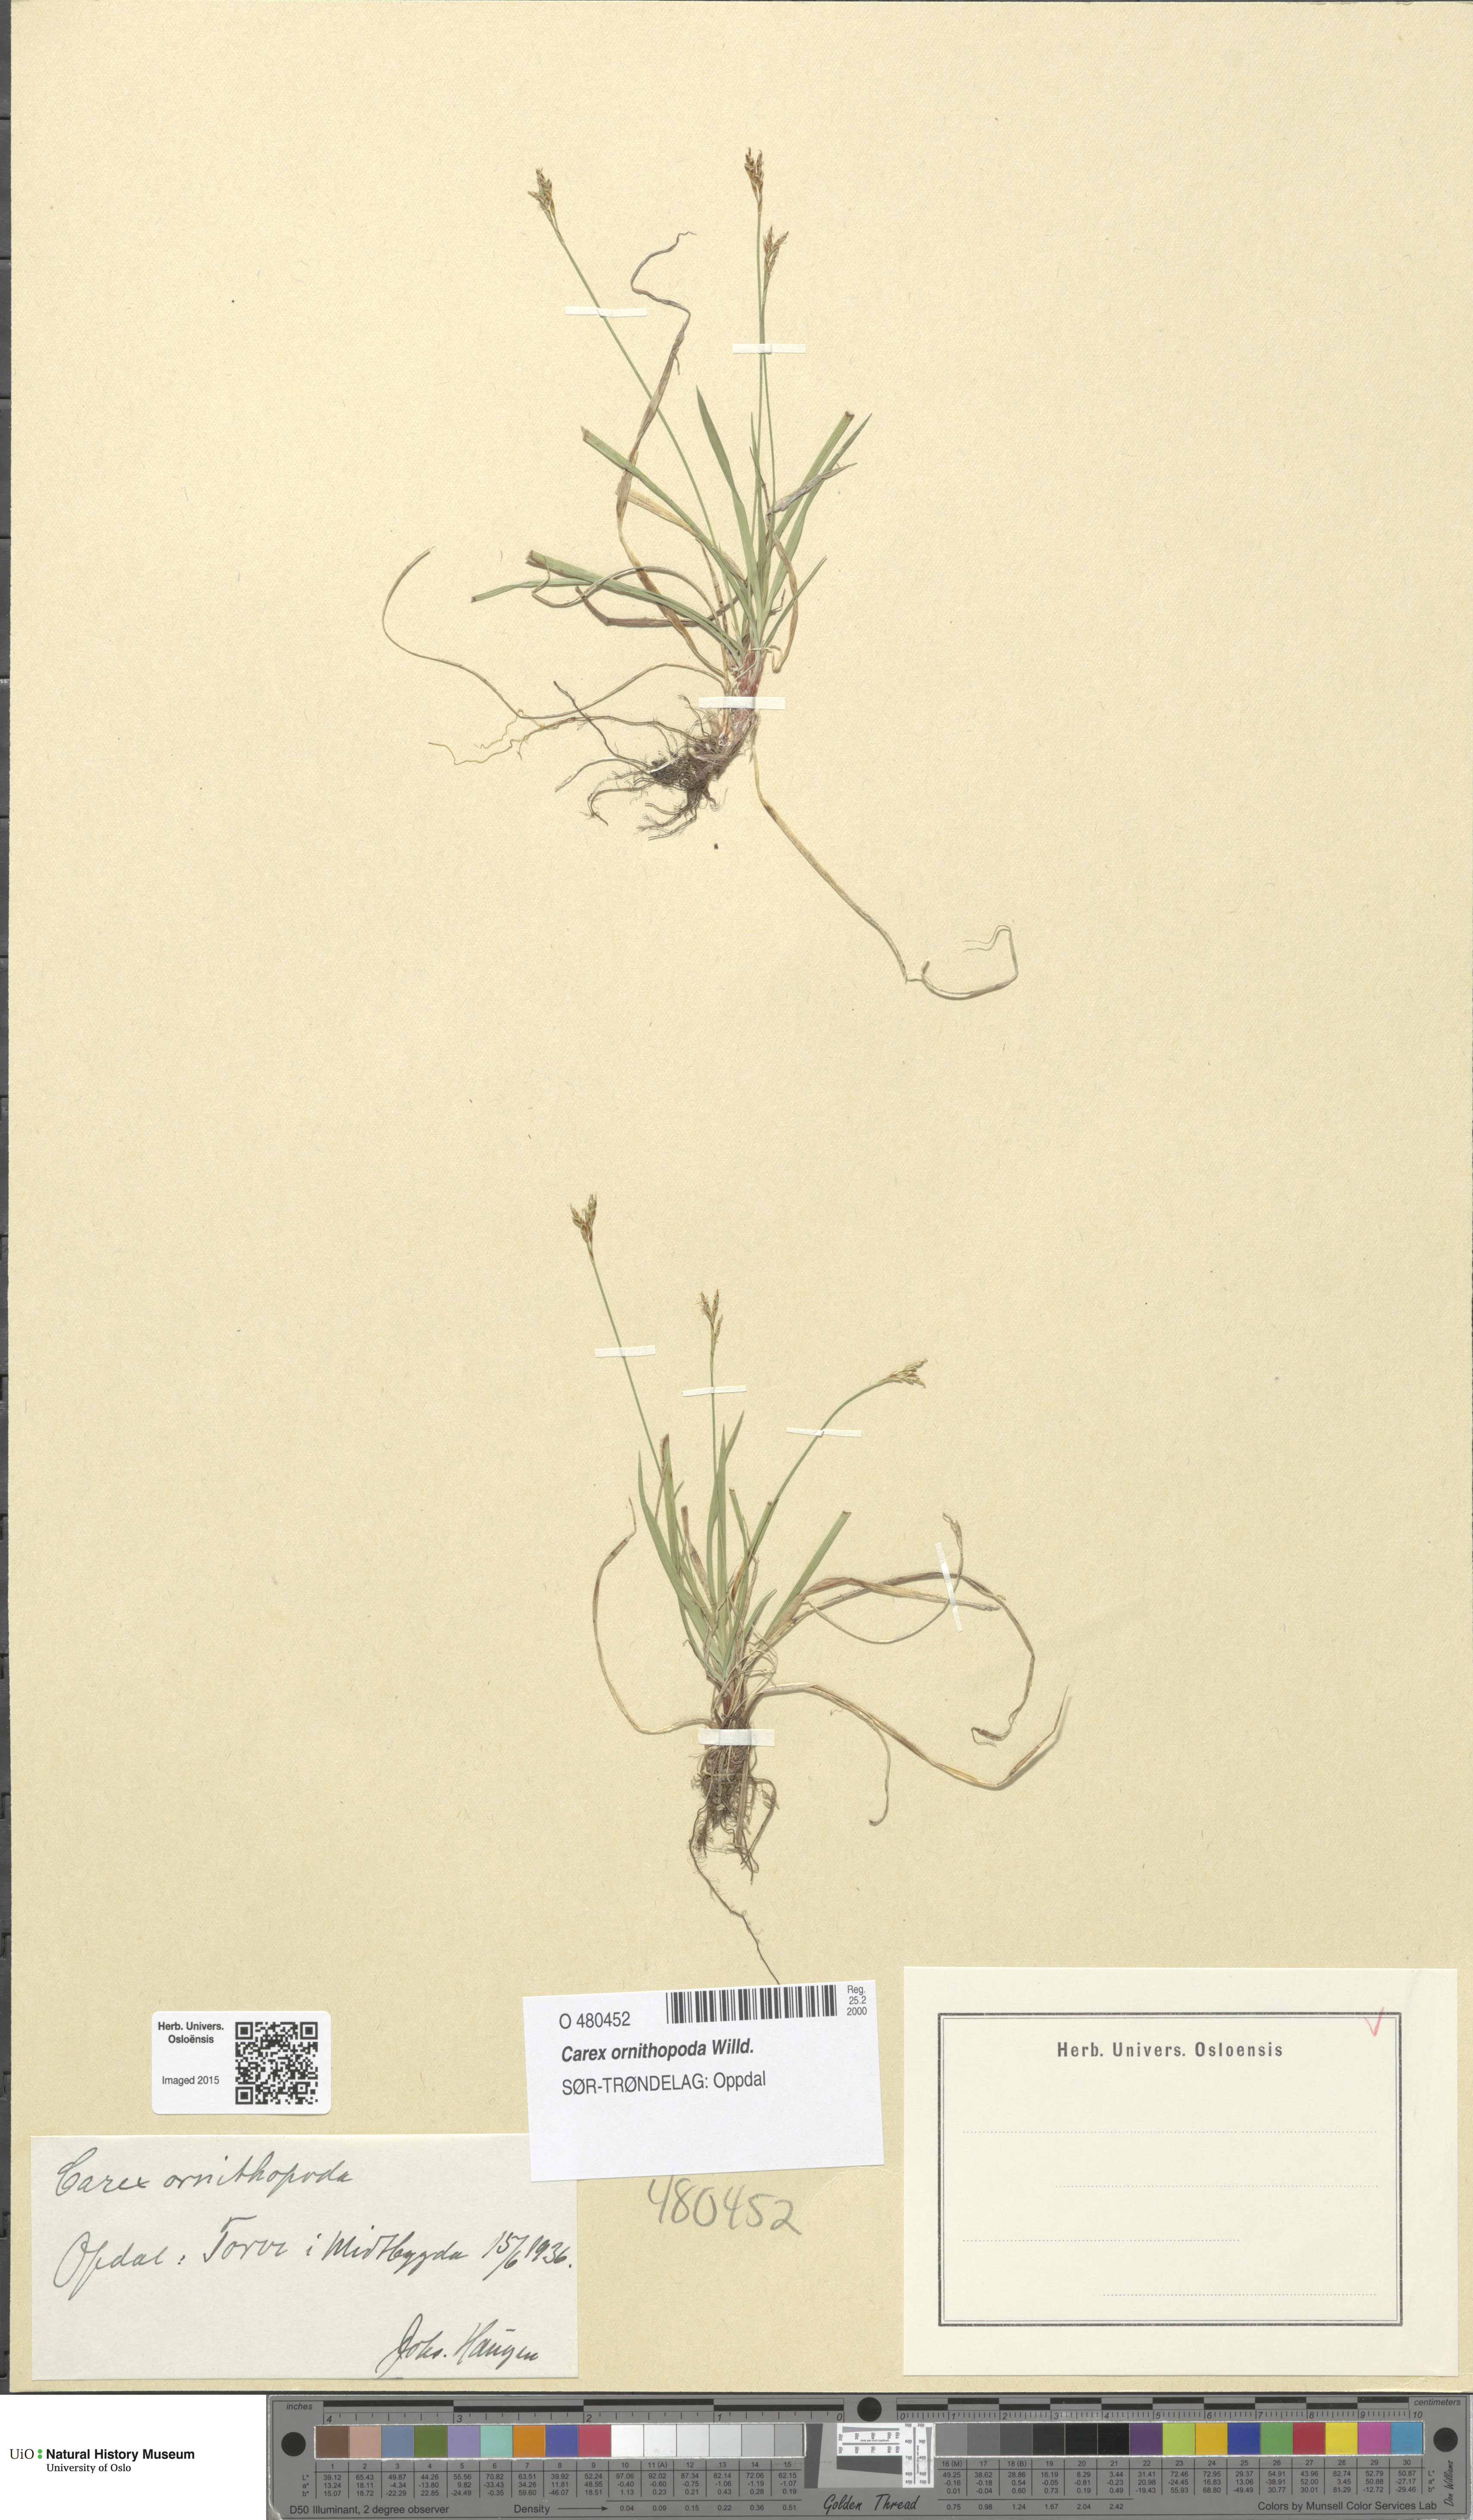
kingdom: Plantae
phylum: Tracheophyta
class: Liliopsida
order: Poales
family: Cyperaceae
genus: Carex
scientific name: Carex ornithopoda
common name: Bird's-foot sedge
